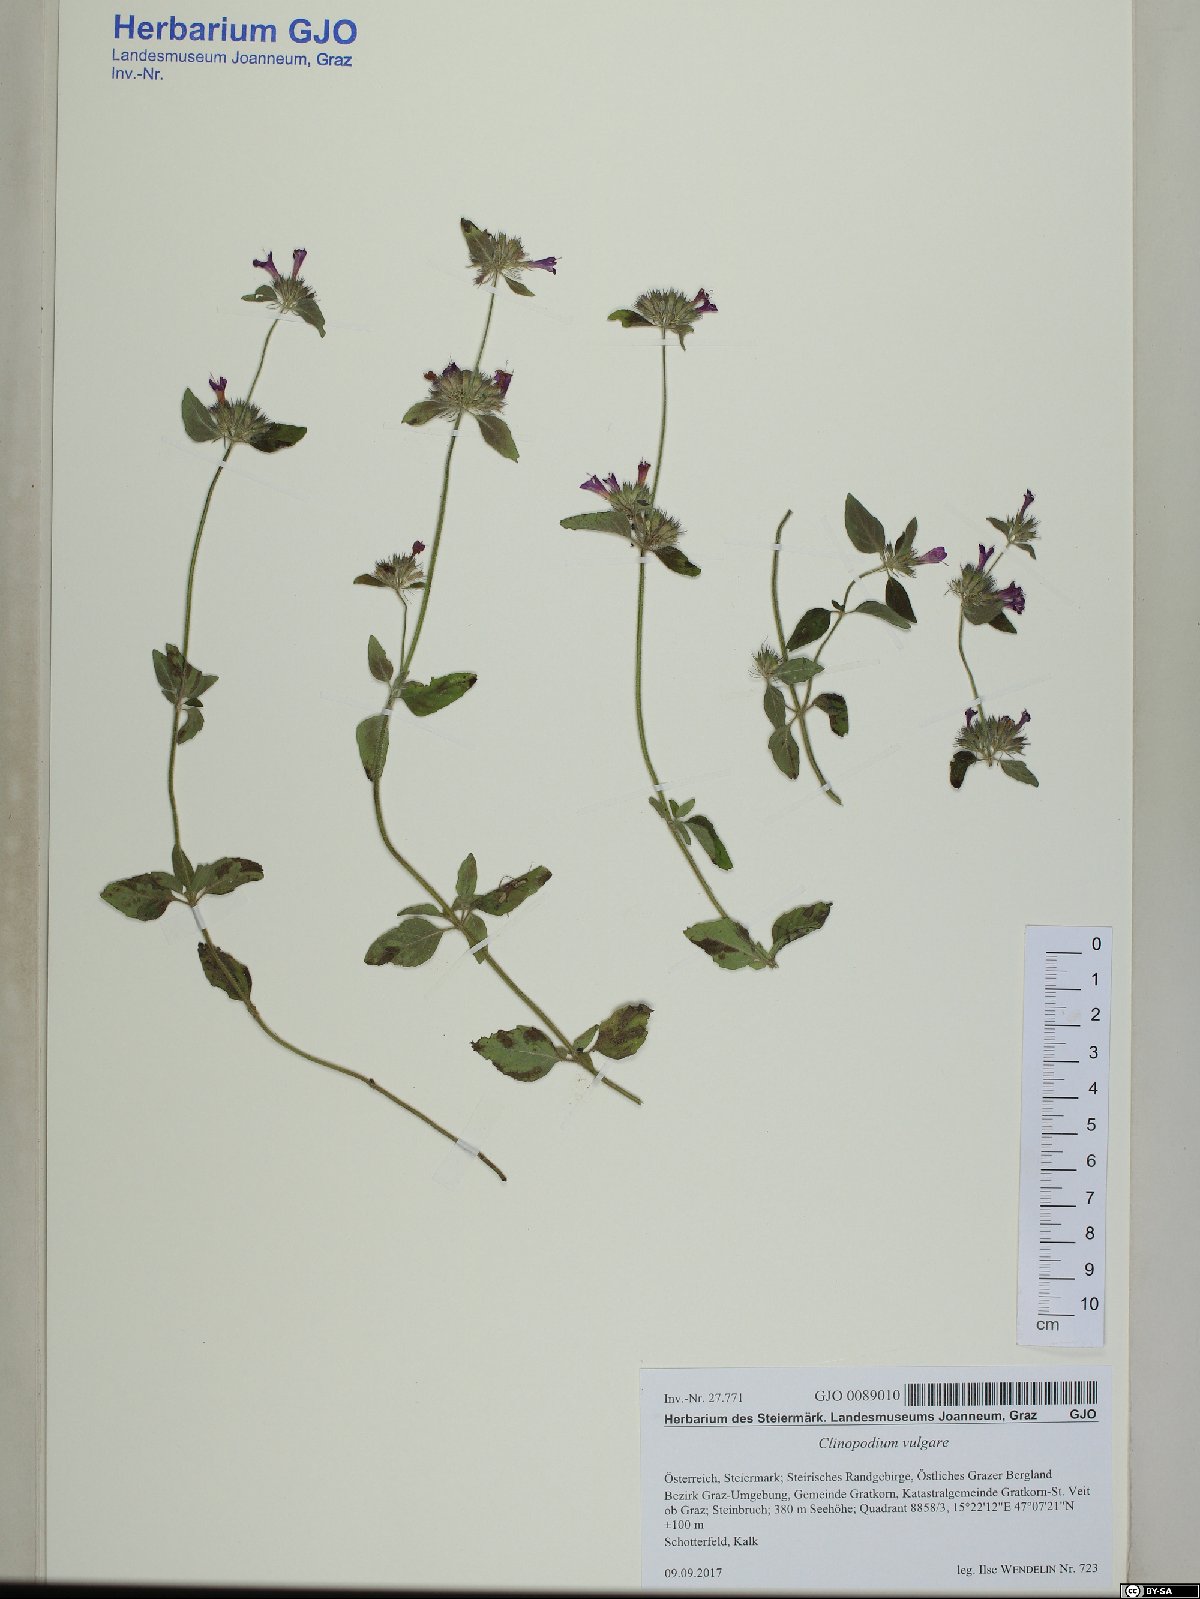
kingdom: Plantae
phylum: Tracheophyta
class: Magnoliopsida
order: Lamiales
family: Lamiaceae
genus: Clinopodium
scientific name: Clinopodium vulgare
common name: Wild basil
